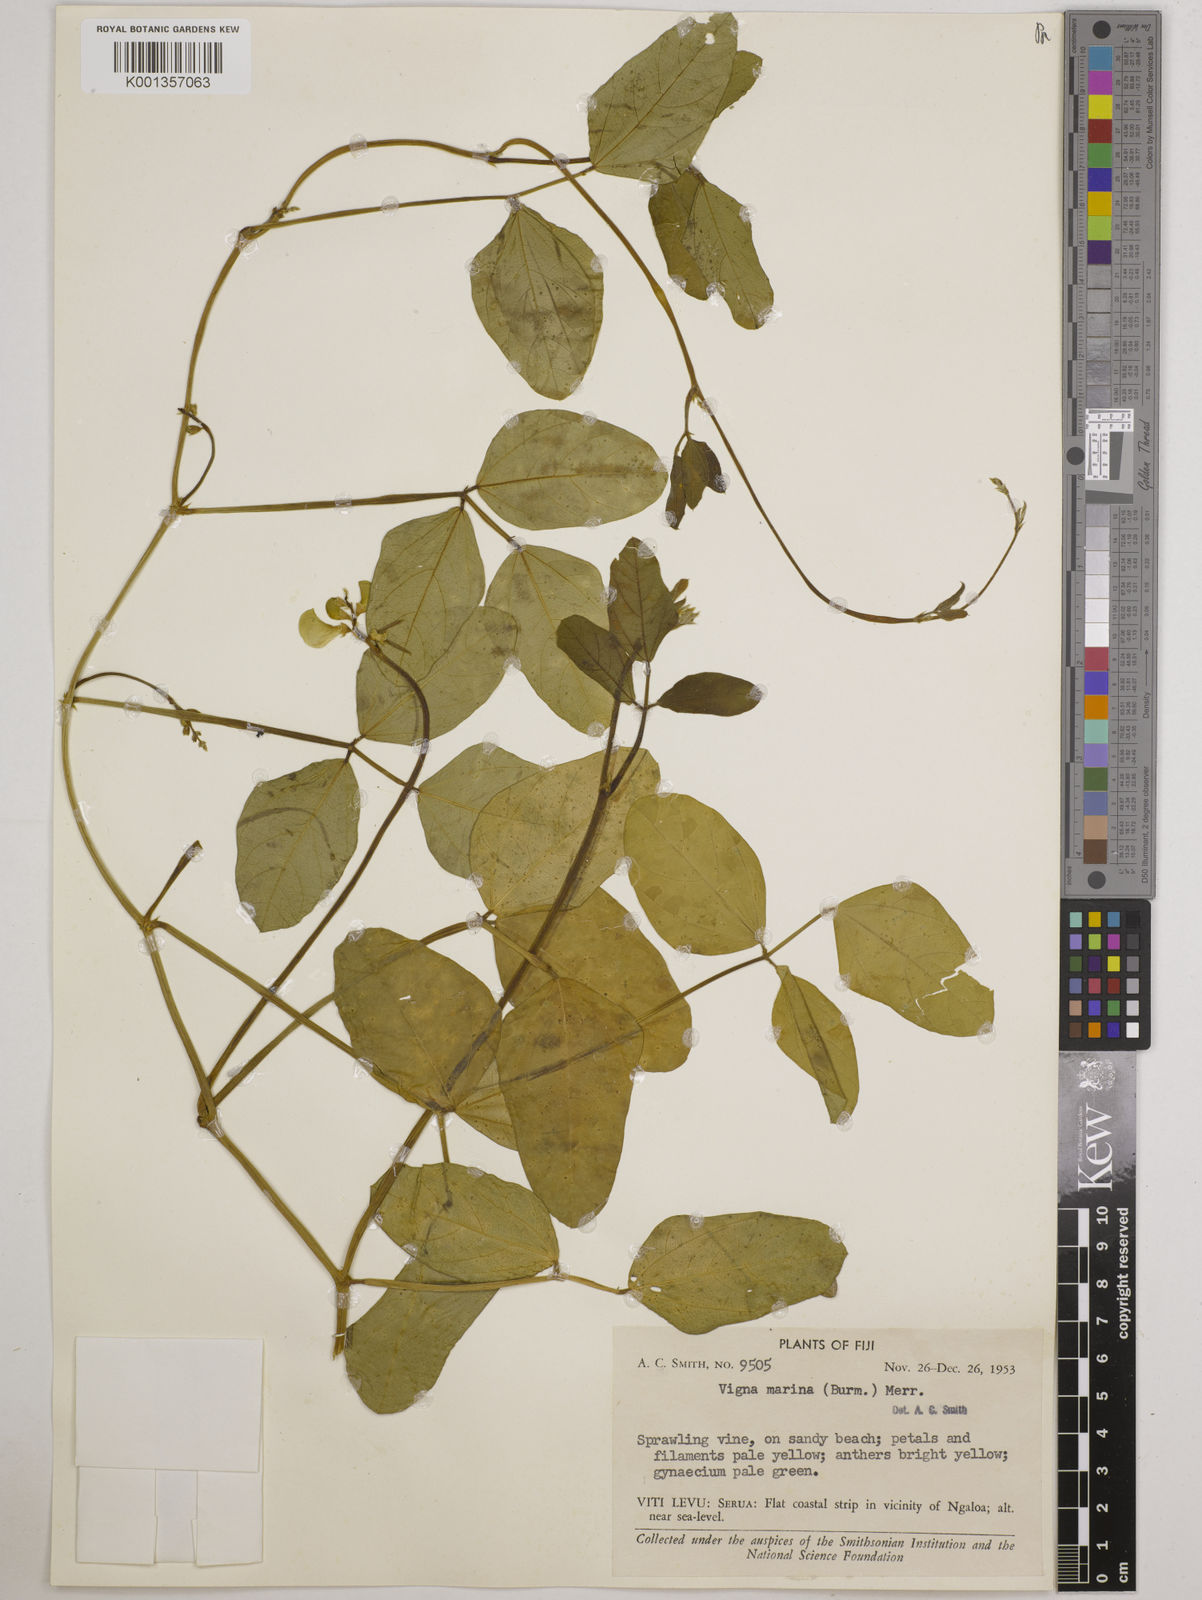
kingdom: Plantae
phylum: Tracheophyta
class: Magnoliopsida
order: Fabales
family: Fabaceae
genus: Vigna
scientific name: Vigna marina
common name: Dune-bean
